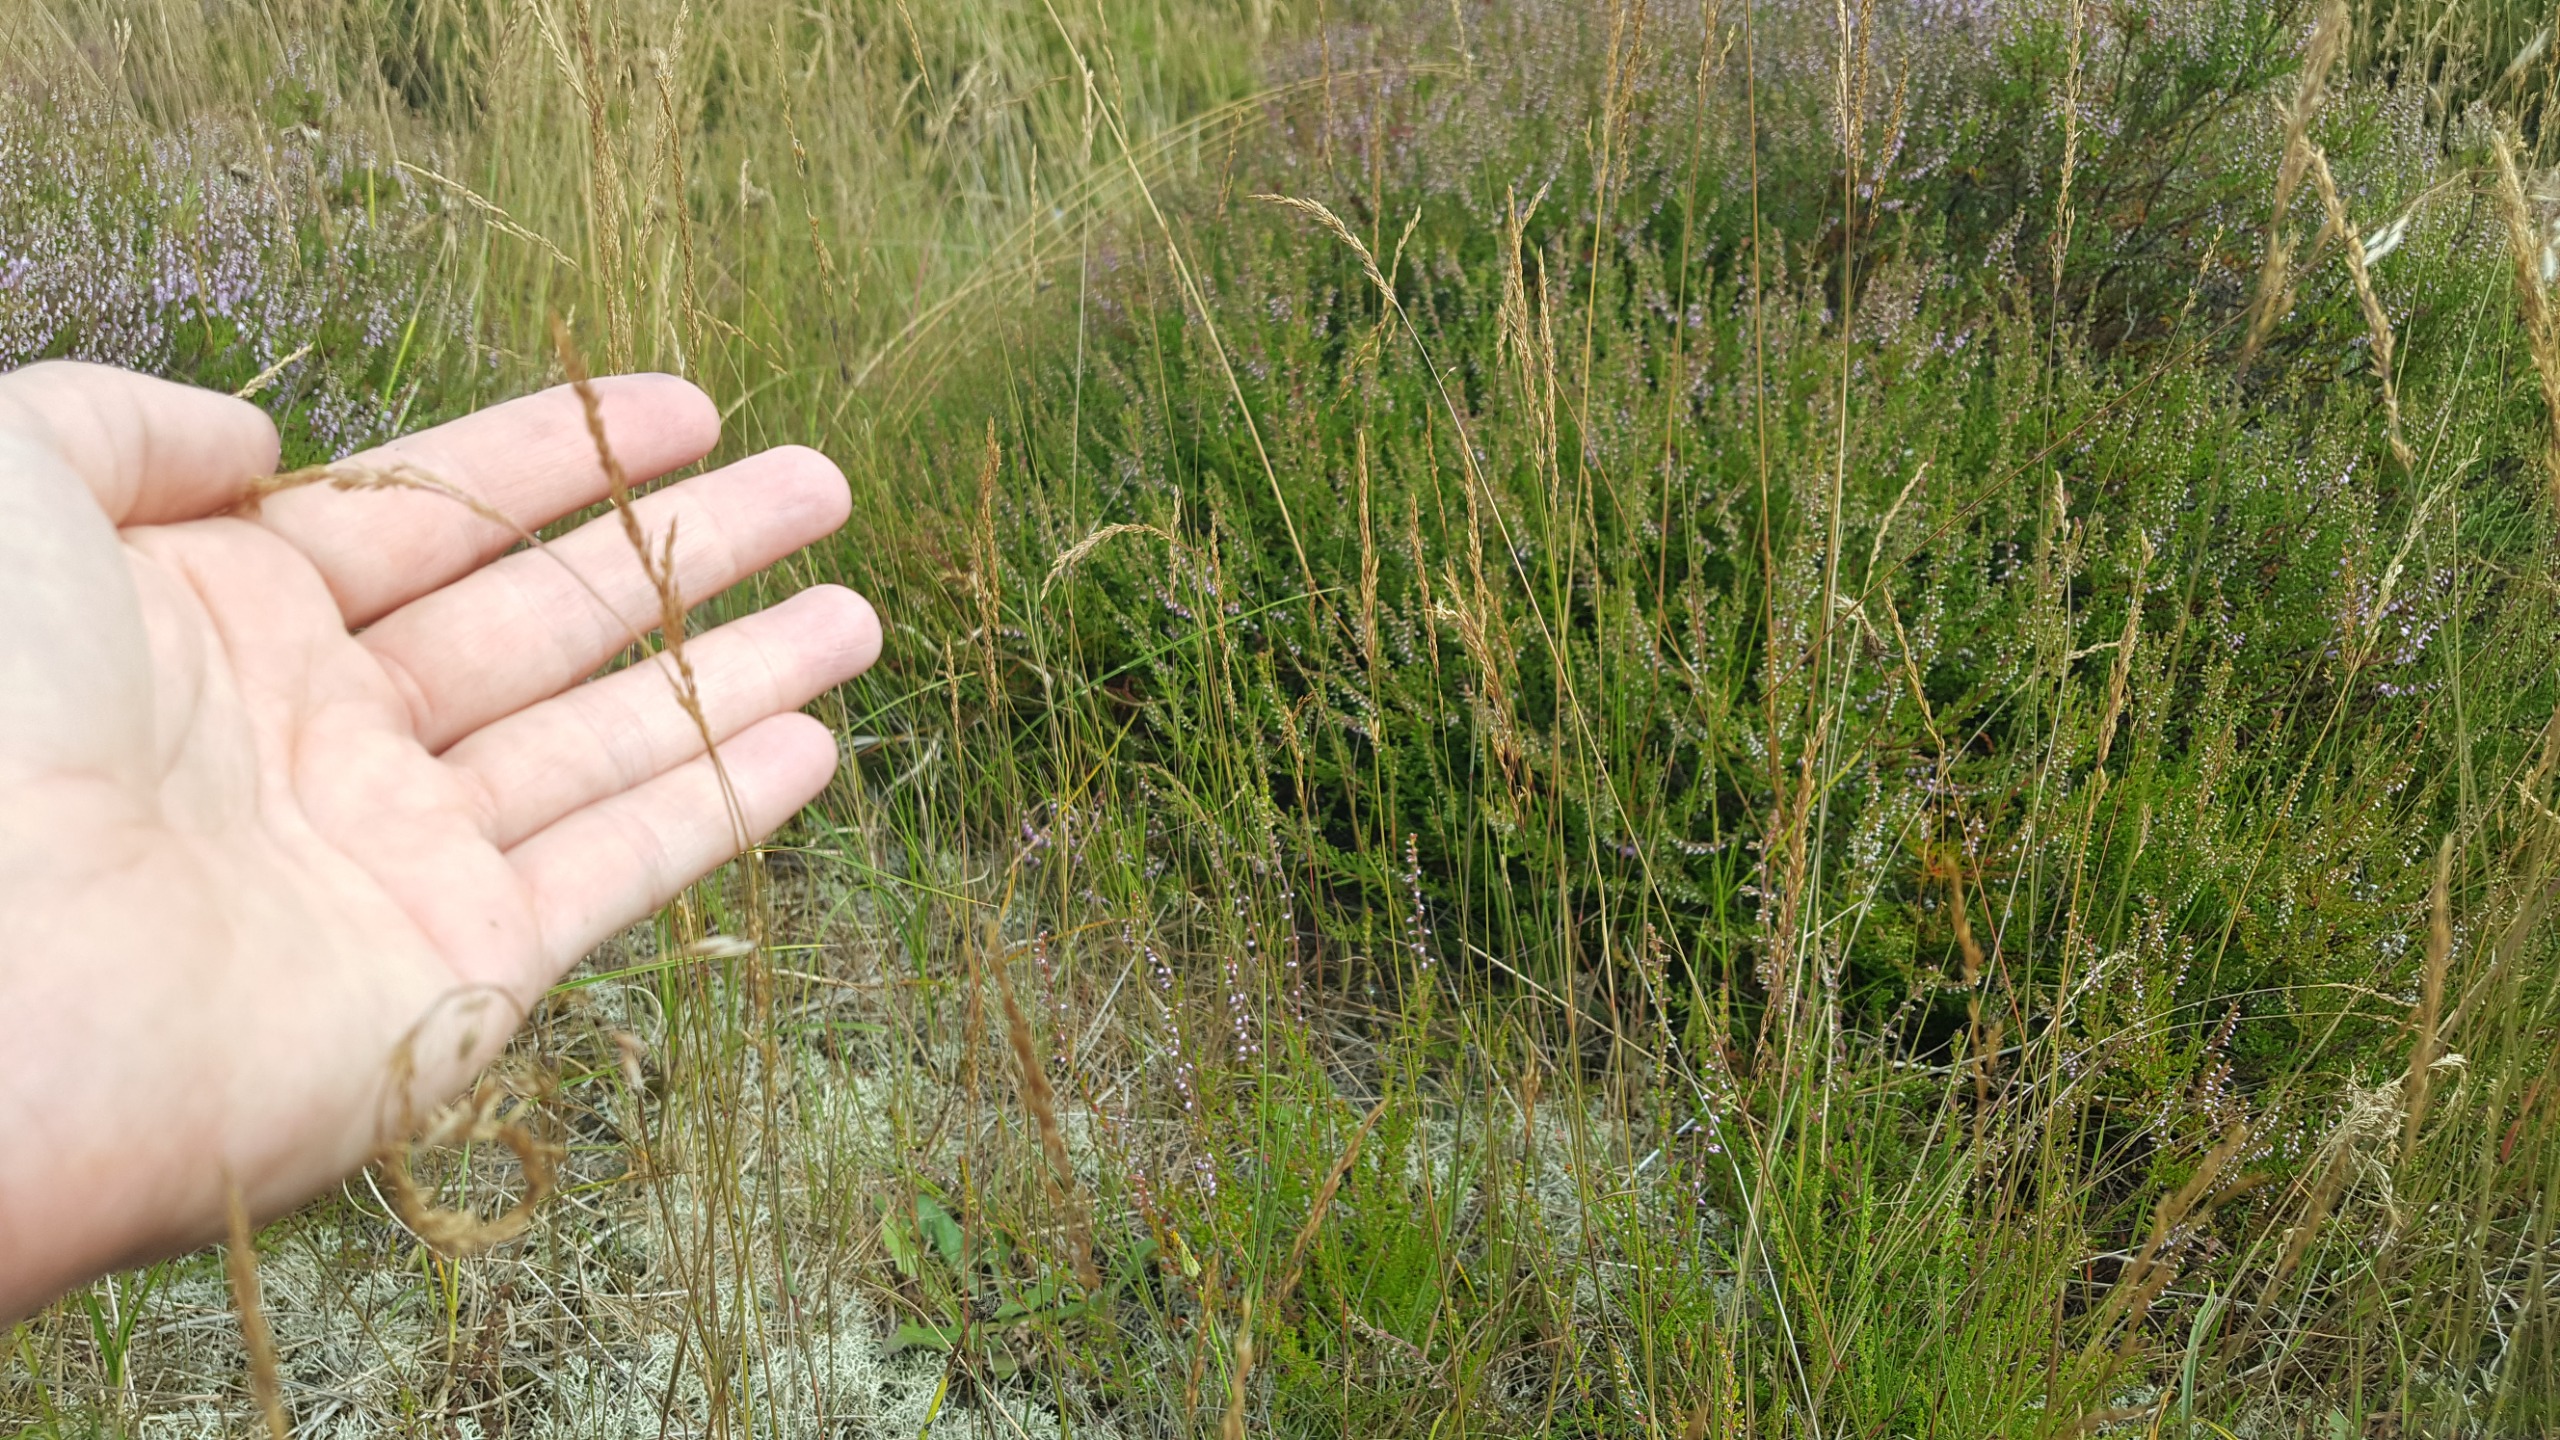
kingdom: Plantae
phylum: Tracheophyta
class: Liliopsida
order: Poales
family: Poaceae
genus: Agrostis
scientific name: Agrostis vinealis
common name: Sand-hvene
